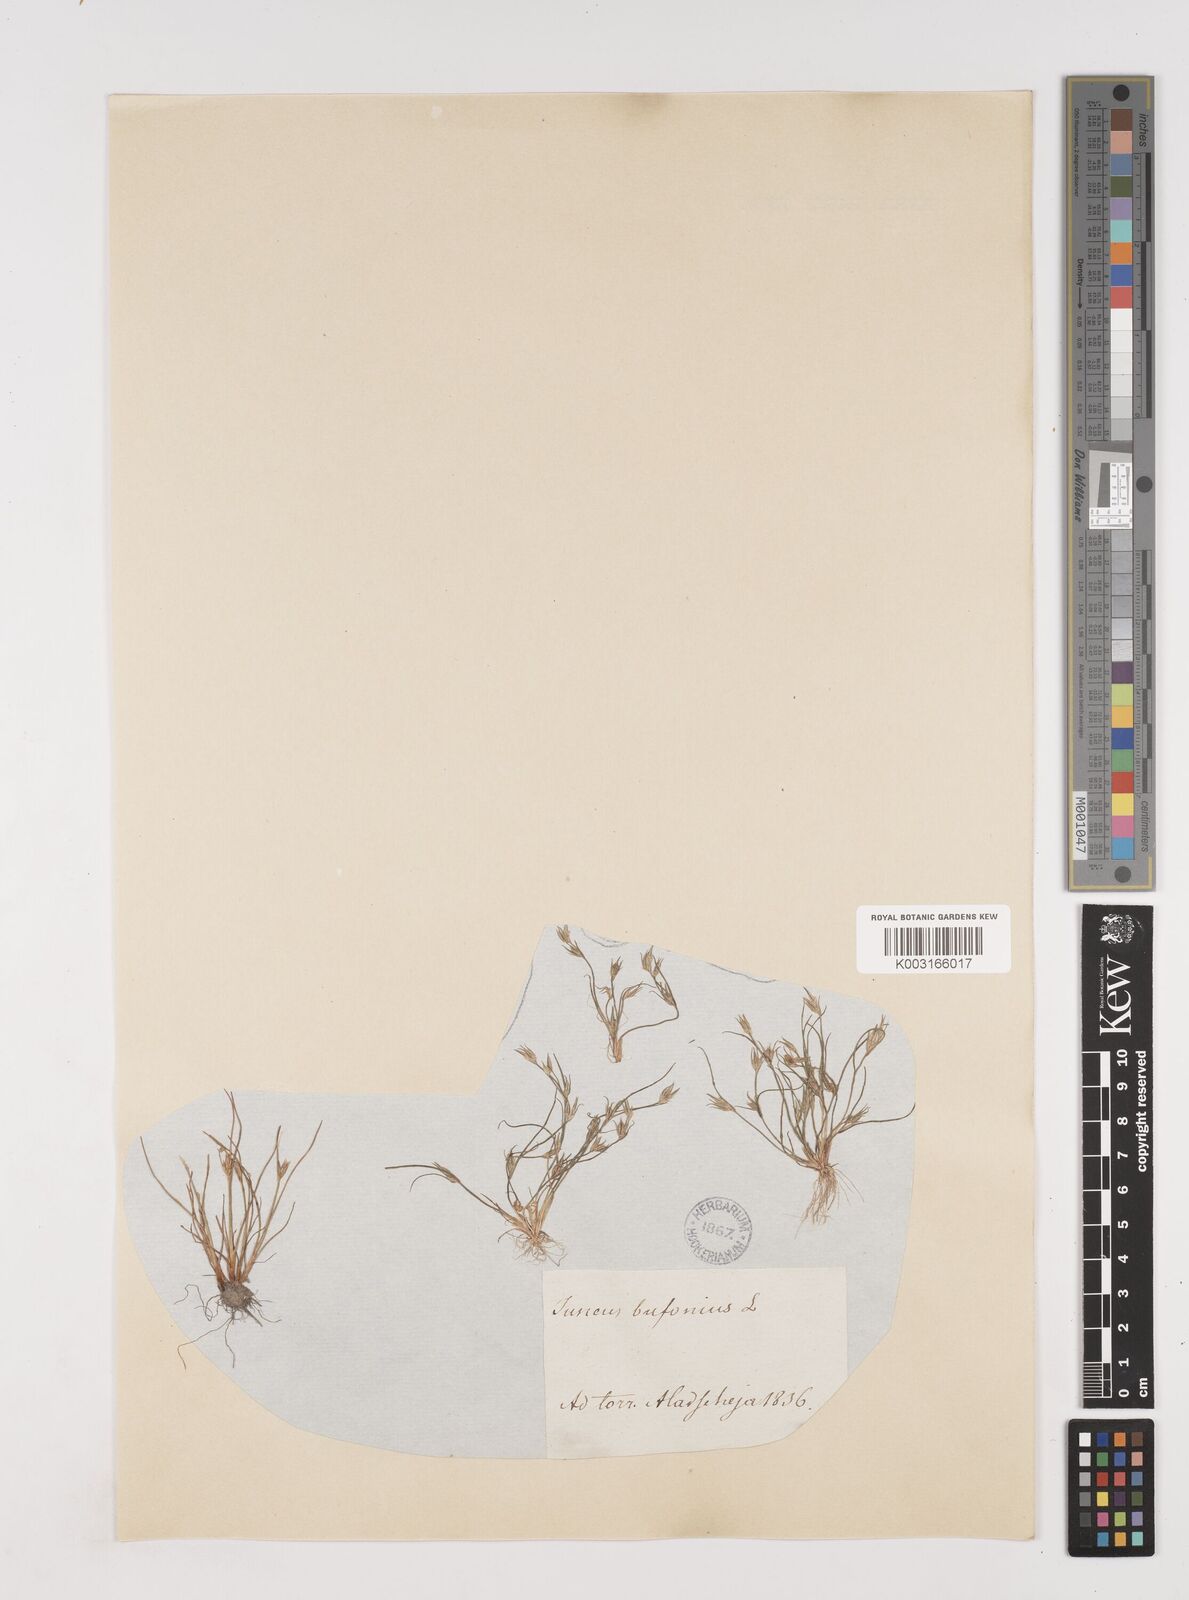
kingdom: Plantae
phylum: Tracheophyta
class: Liliopsida
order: Poales
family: Juncaceae
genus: Juncus
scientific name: Juncus bufonius
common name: Toad rush
